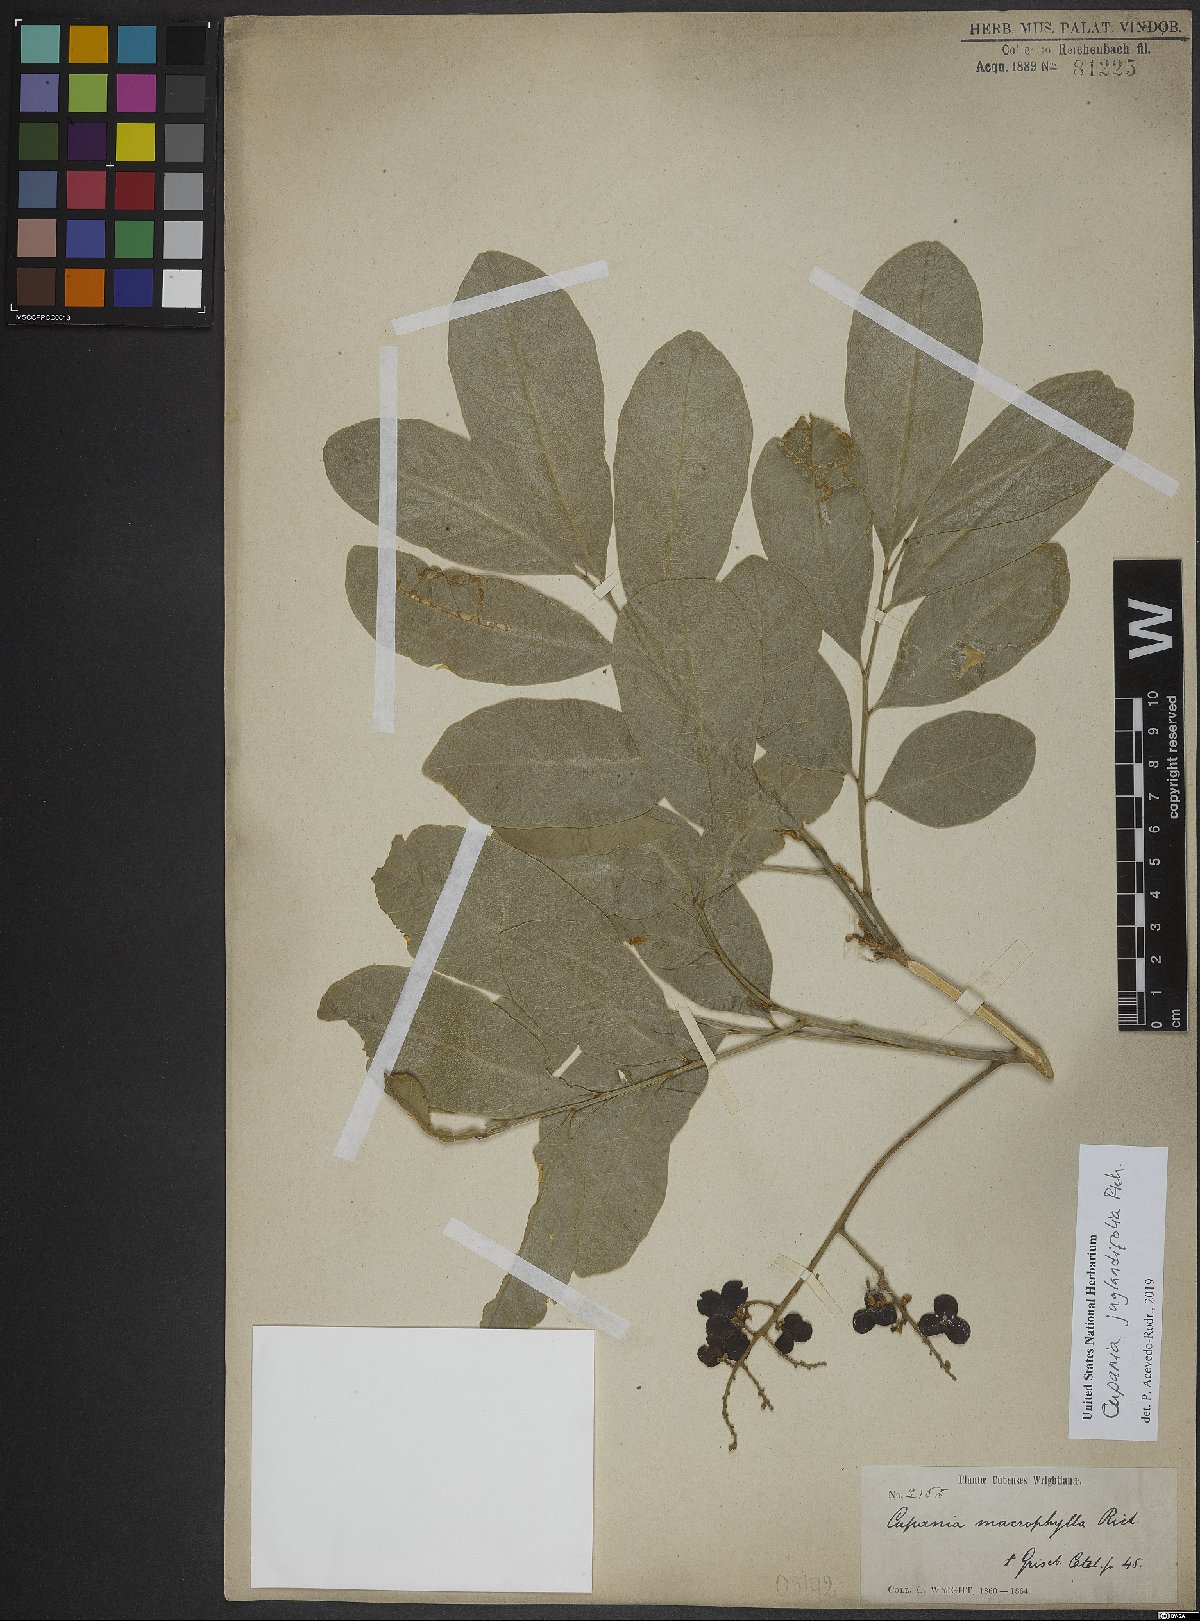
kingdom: Plantae
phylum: Tracheophyta
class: Magnoliopsida
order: Sapindales
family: Sapindaceae
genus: Cupania
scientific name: Cupania juglandifolia
